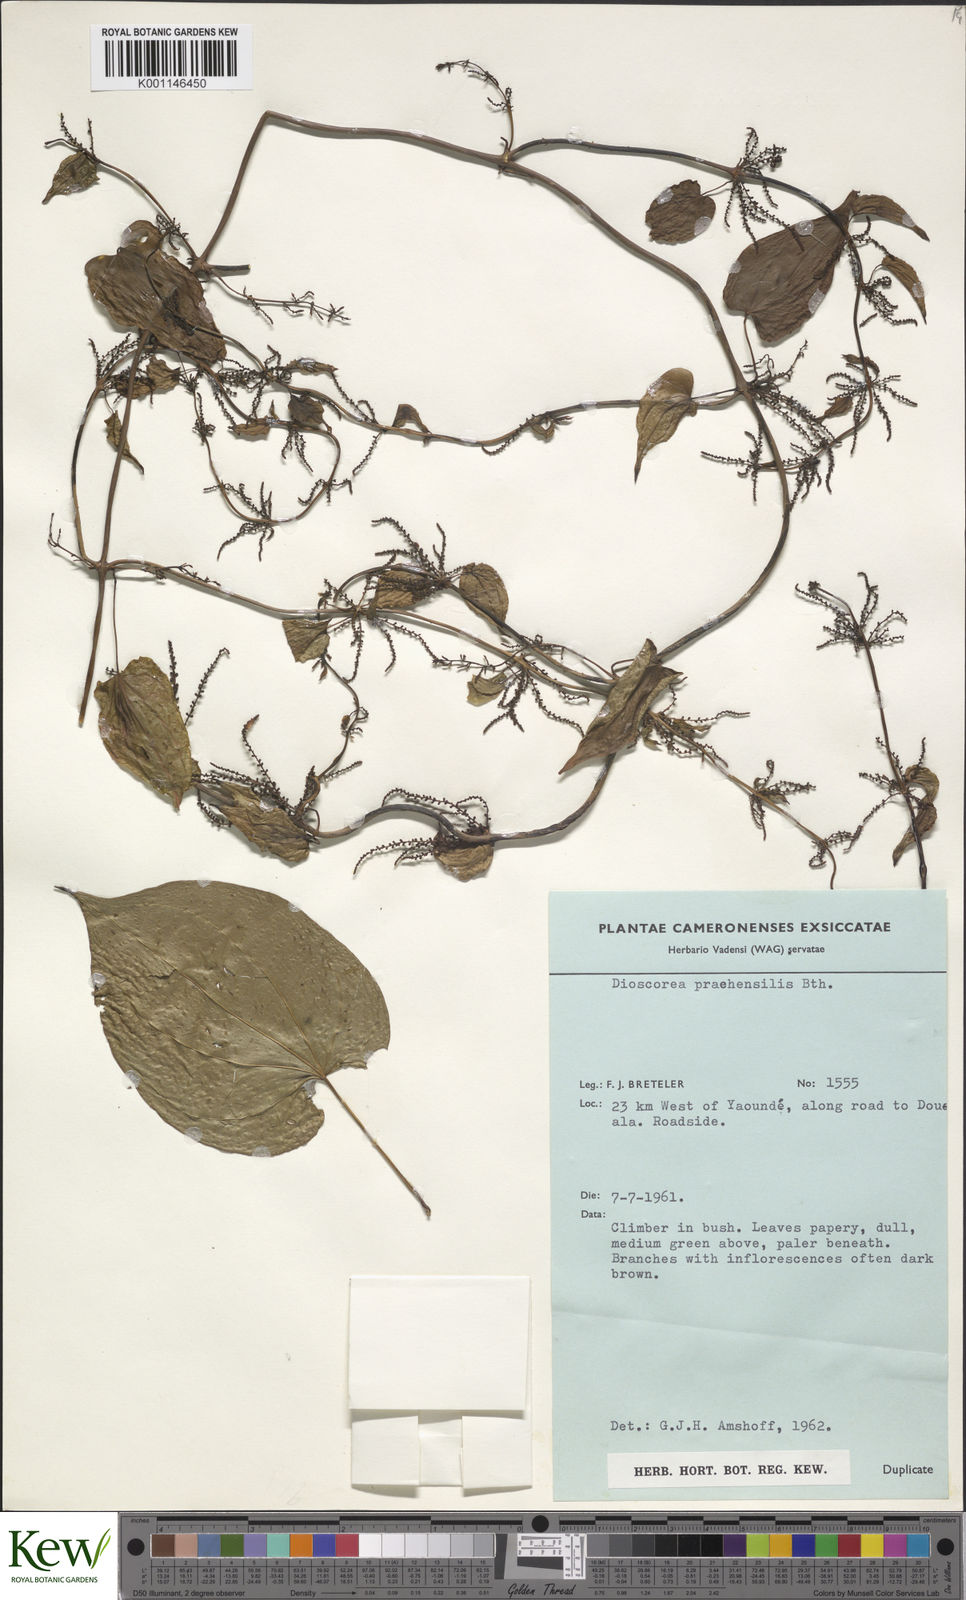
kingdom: Plantae
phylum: Tracheophyta
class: Liliopsida
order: Dioscoreales
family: Dioscoreaceae
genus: Dioscorea
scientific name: Dioscorea praehensilis
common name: Bush yam
